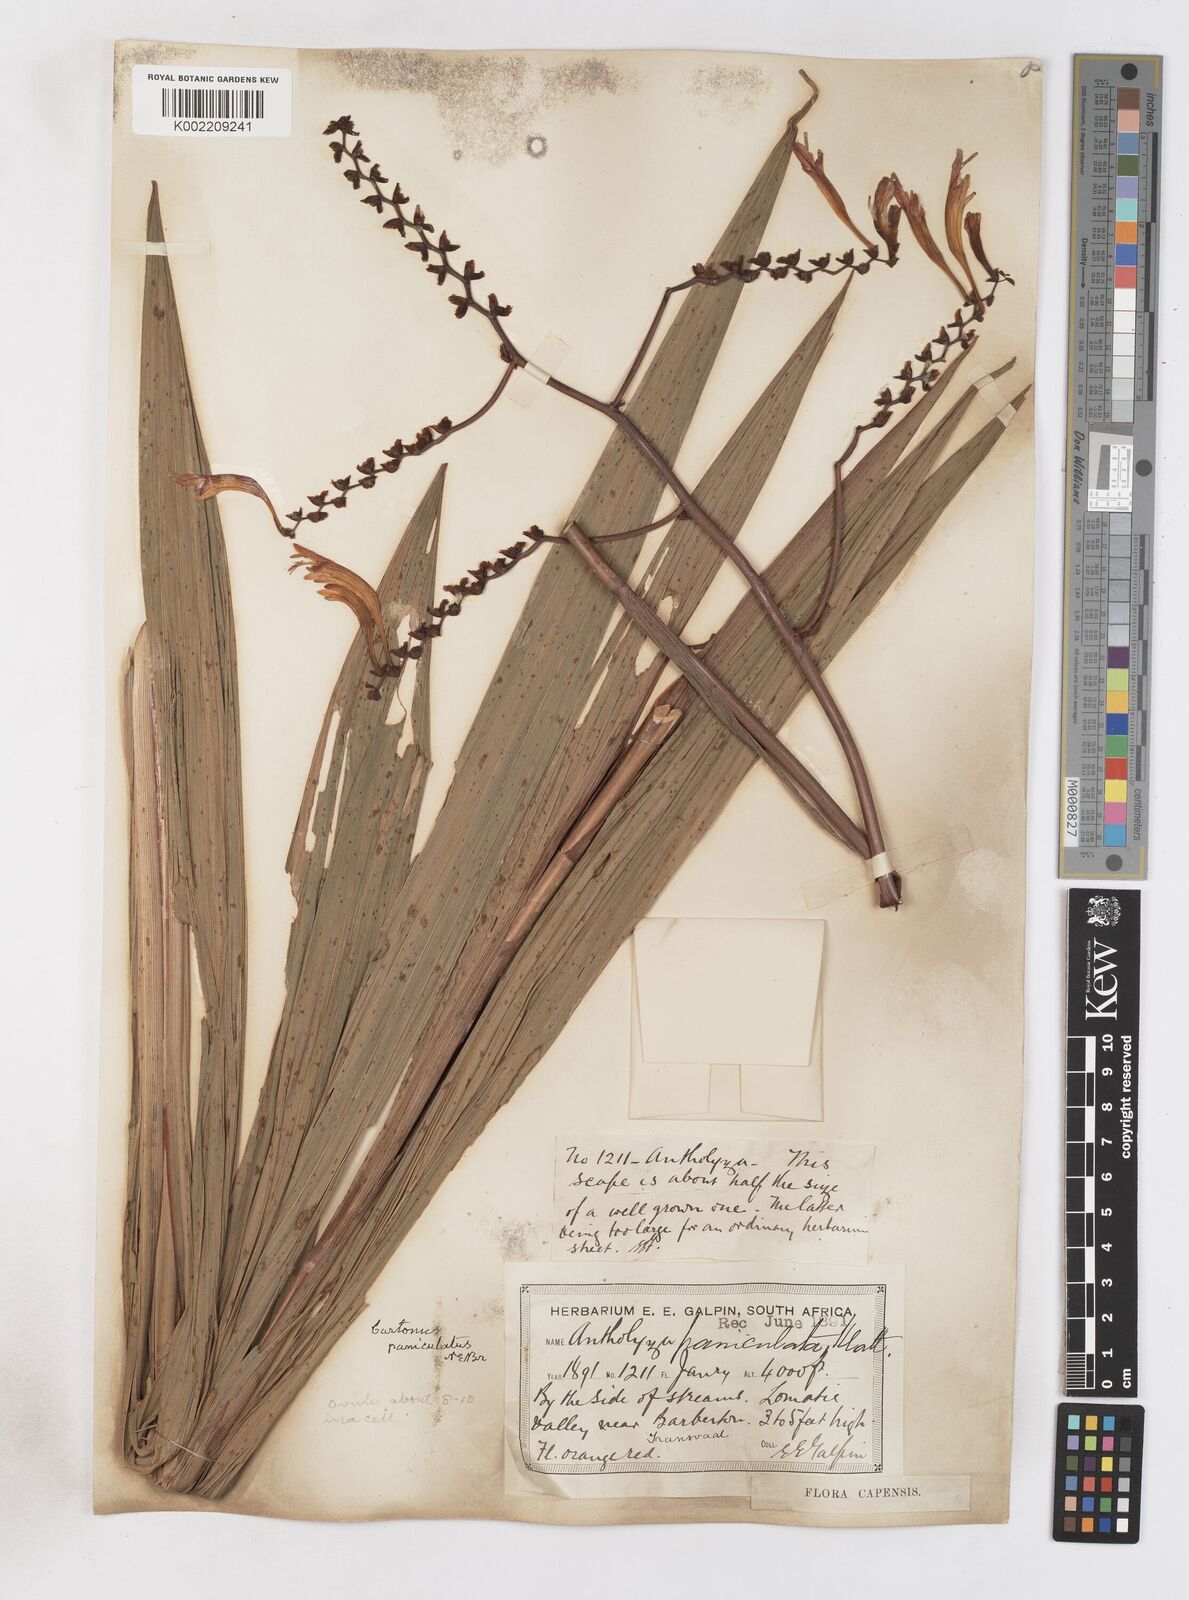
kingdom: Plantae
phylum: Tracheophyta
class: Liliopsida
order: Asparagales
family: Iridaceae
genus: Crocosmia
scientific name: Crocosmia paniculata
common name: Aunt eliza
